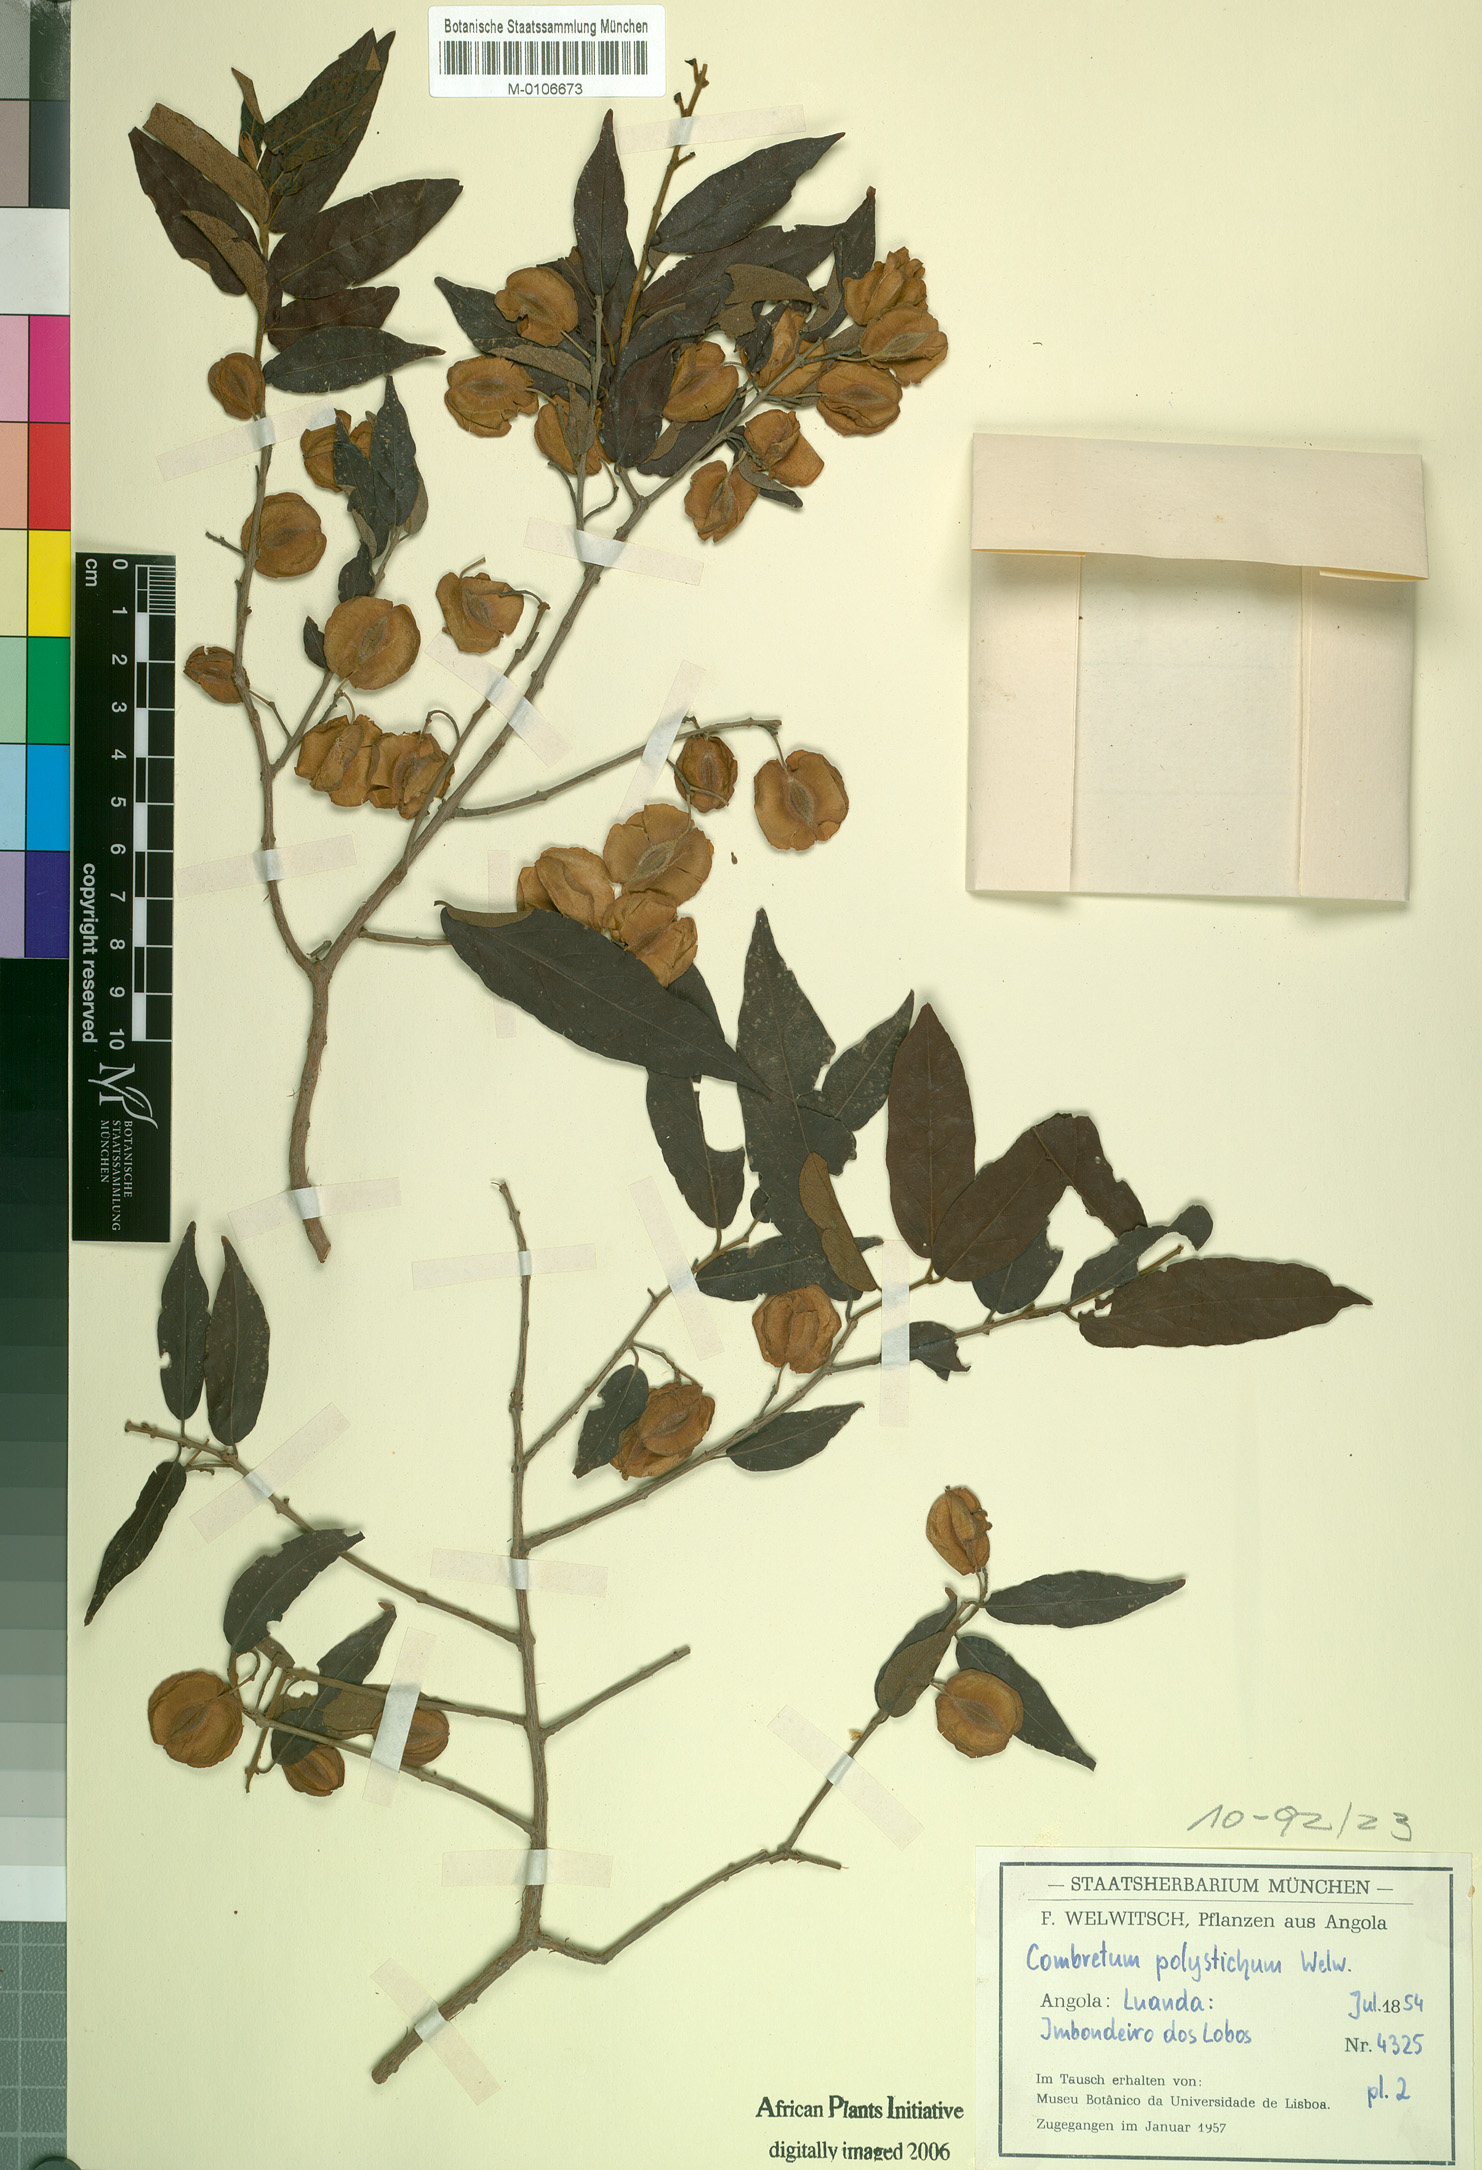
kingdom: Plantae
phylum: Tracheophyta
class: Magnoliopsida
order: Myrtales
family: Combretaceae
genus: Combretum
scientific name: Combretum camporum
